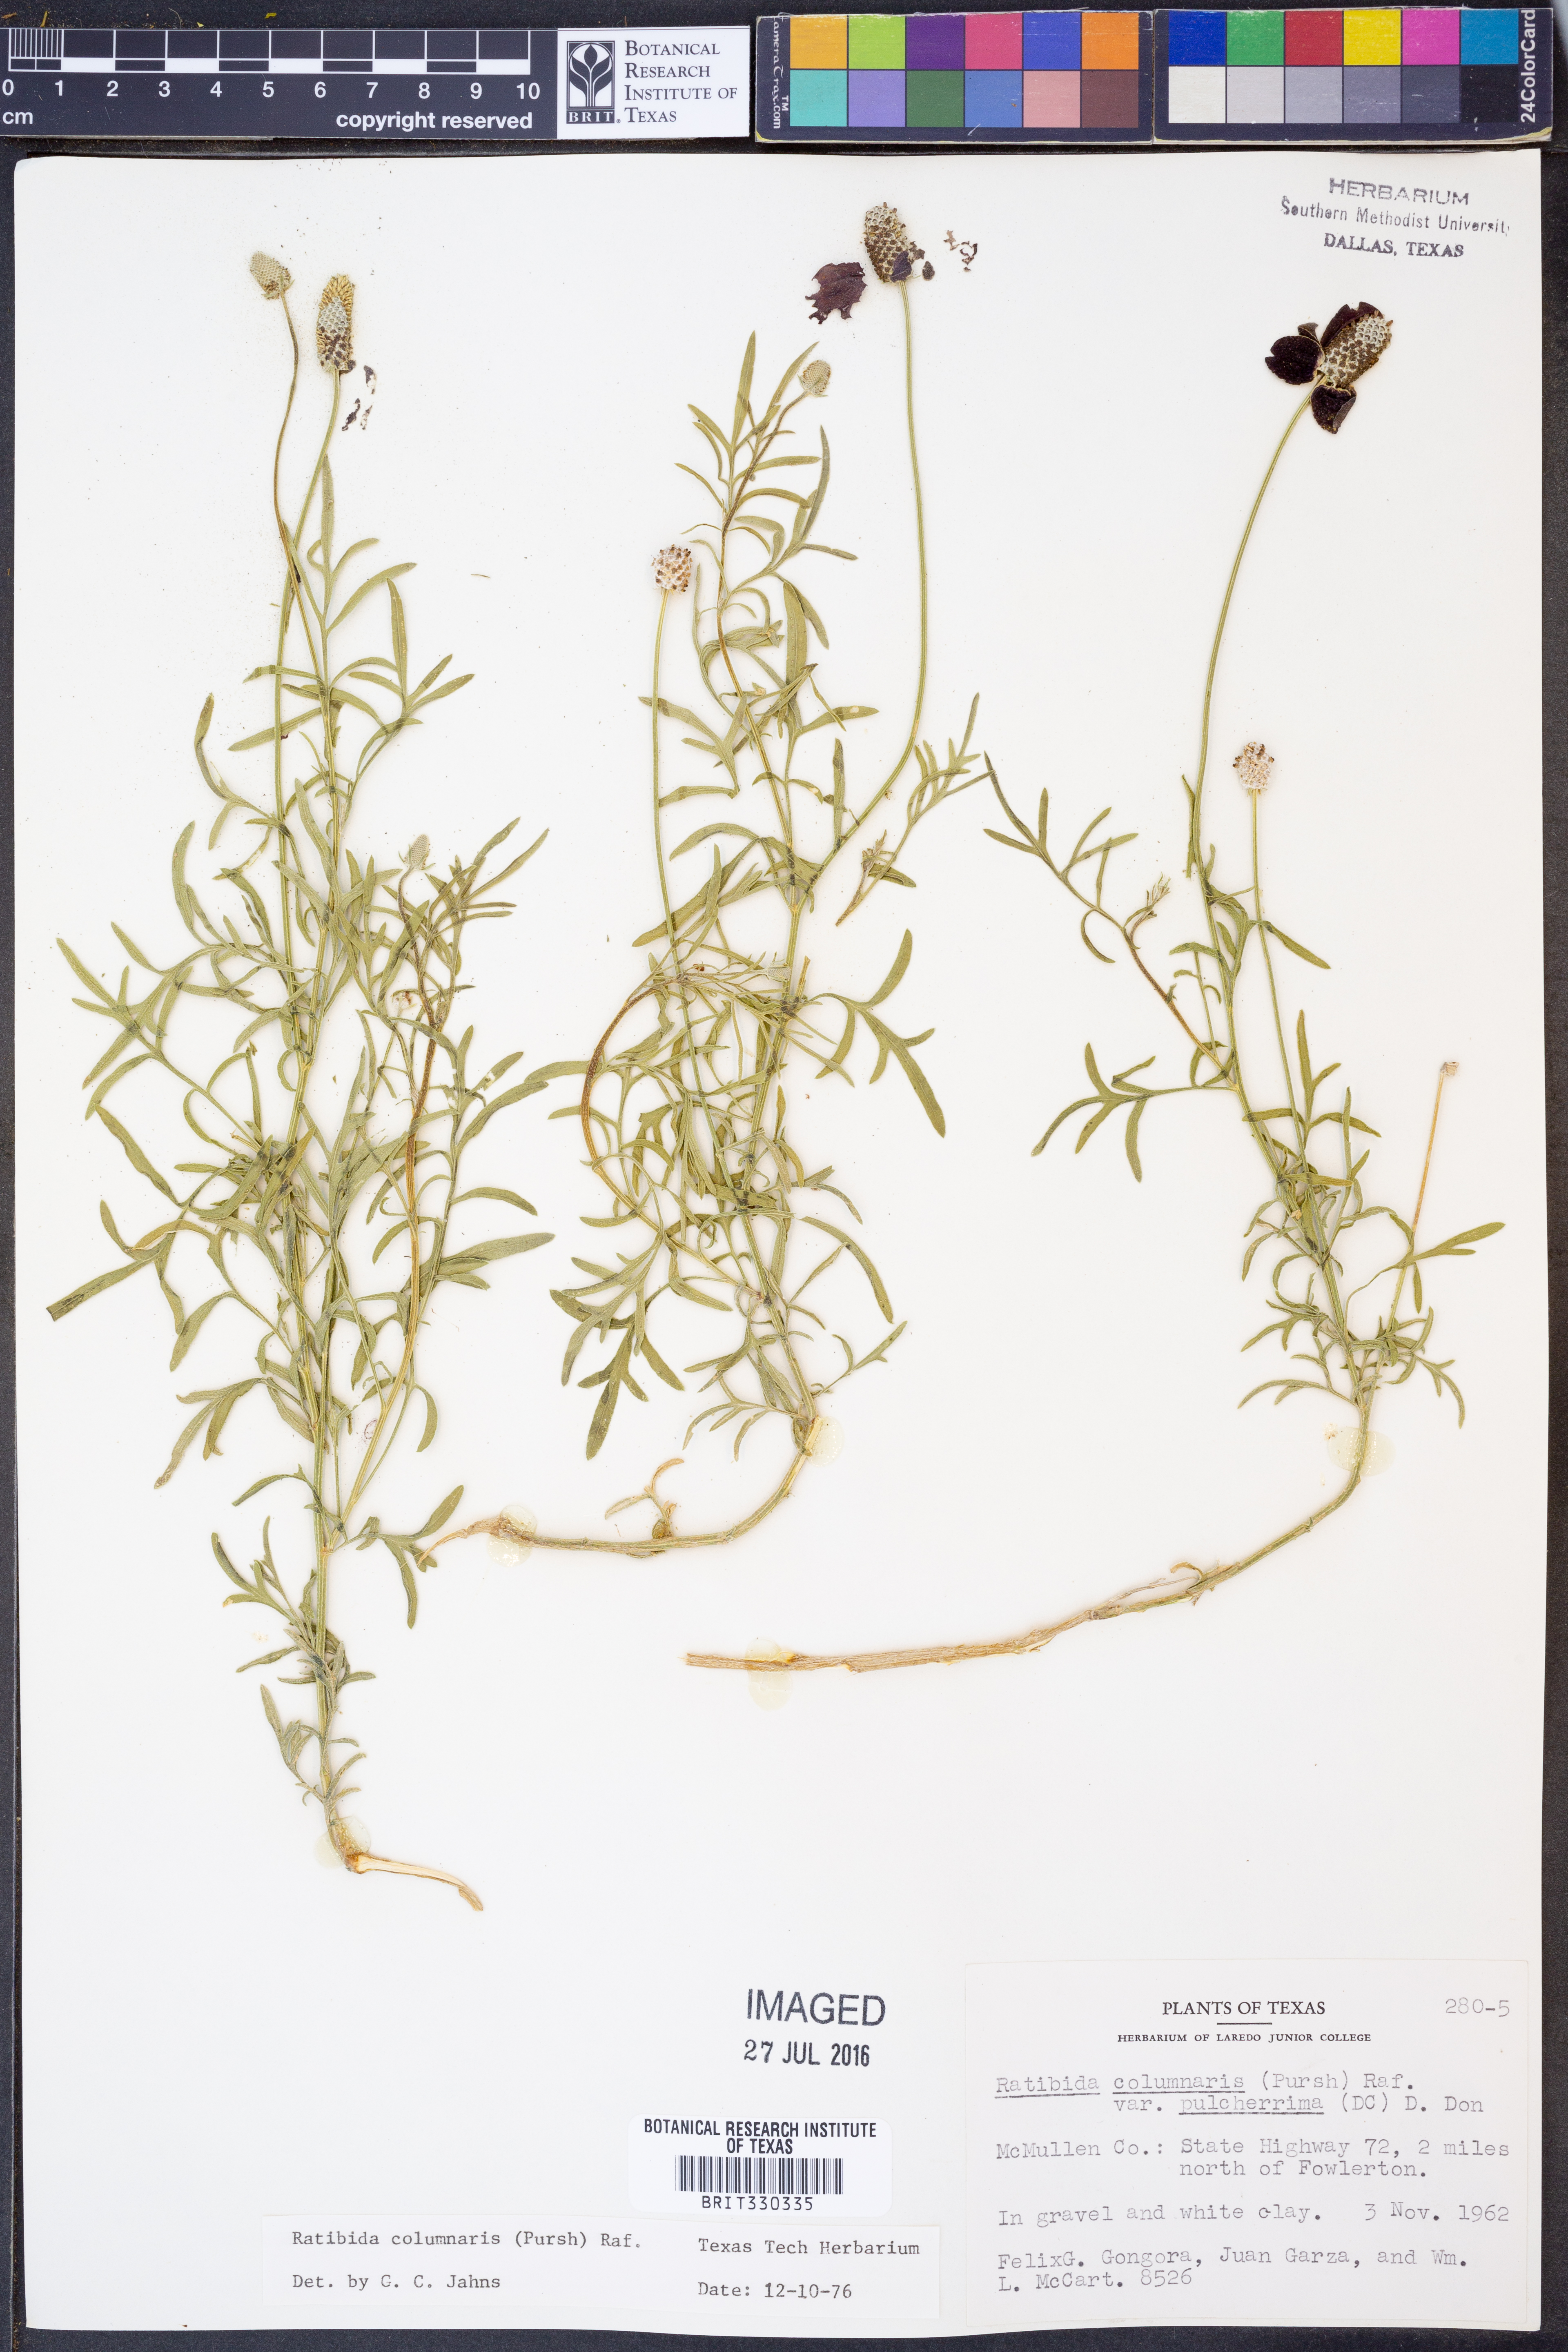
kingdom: Plantae
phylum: Tracheophyta
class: Magnoliopsida
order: Asterales
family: Asteraceae
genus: Ratibida
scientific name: Ratibida columnifera
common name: Prairie coneflower
